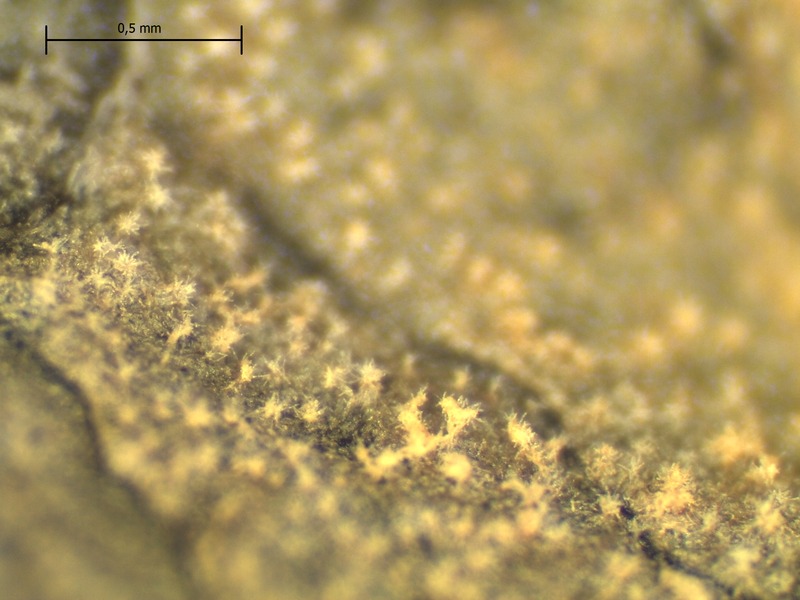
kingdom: Fungi
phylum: Ascomycota
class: Dothideomycetes
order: Mycosphaerellales
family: Mycosphaerellaceae
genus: Ramularia
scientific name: Ramularia macrospora
